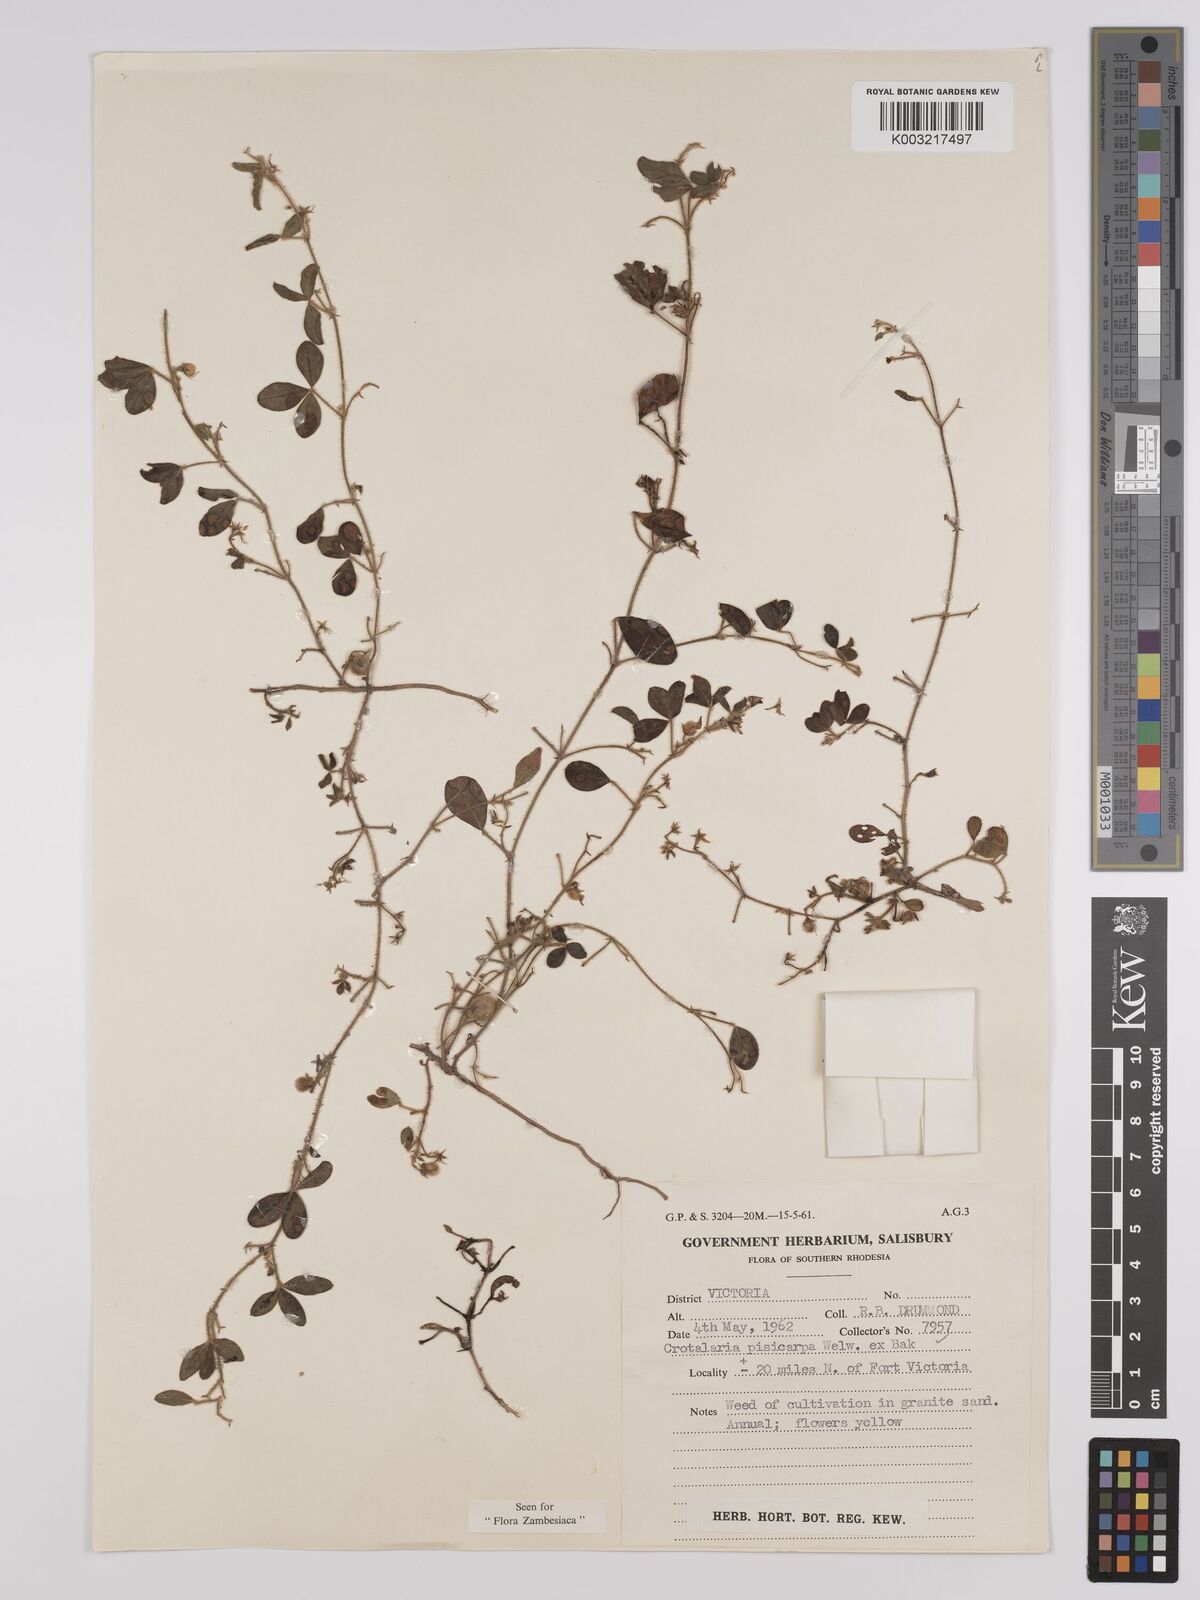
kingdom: Plantae
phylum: Tracheophyta
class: Magnoliopsida
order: Fabales
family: Fabaceae
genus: Crotalaria
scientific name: Crotalaria pisicarpa
